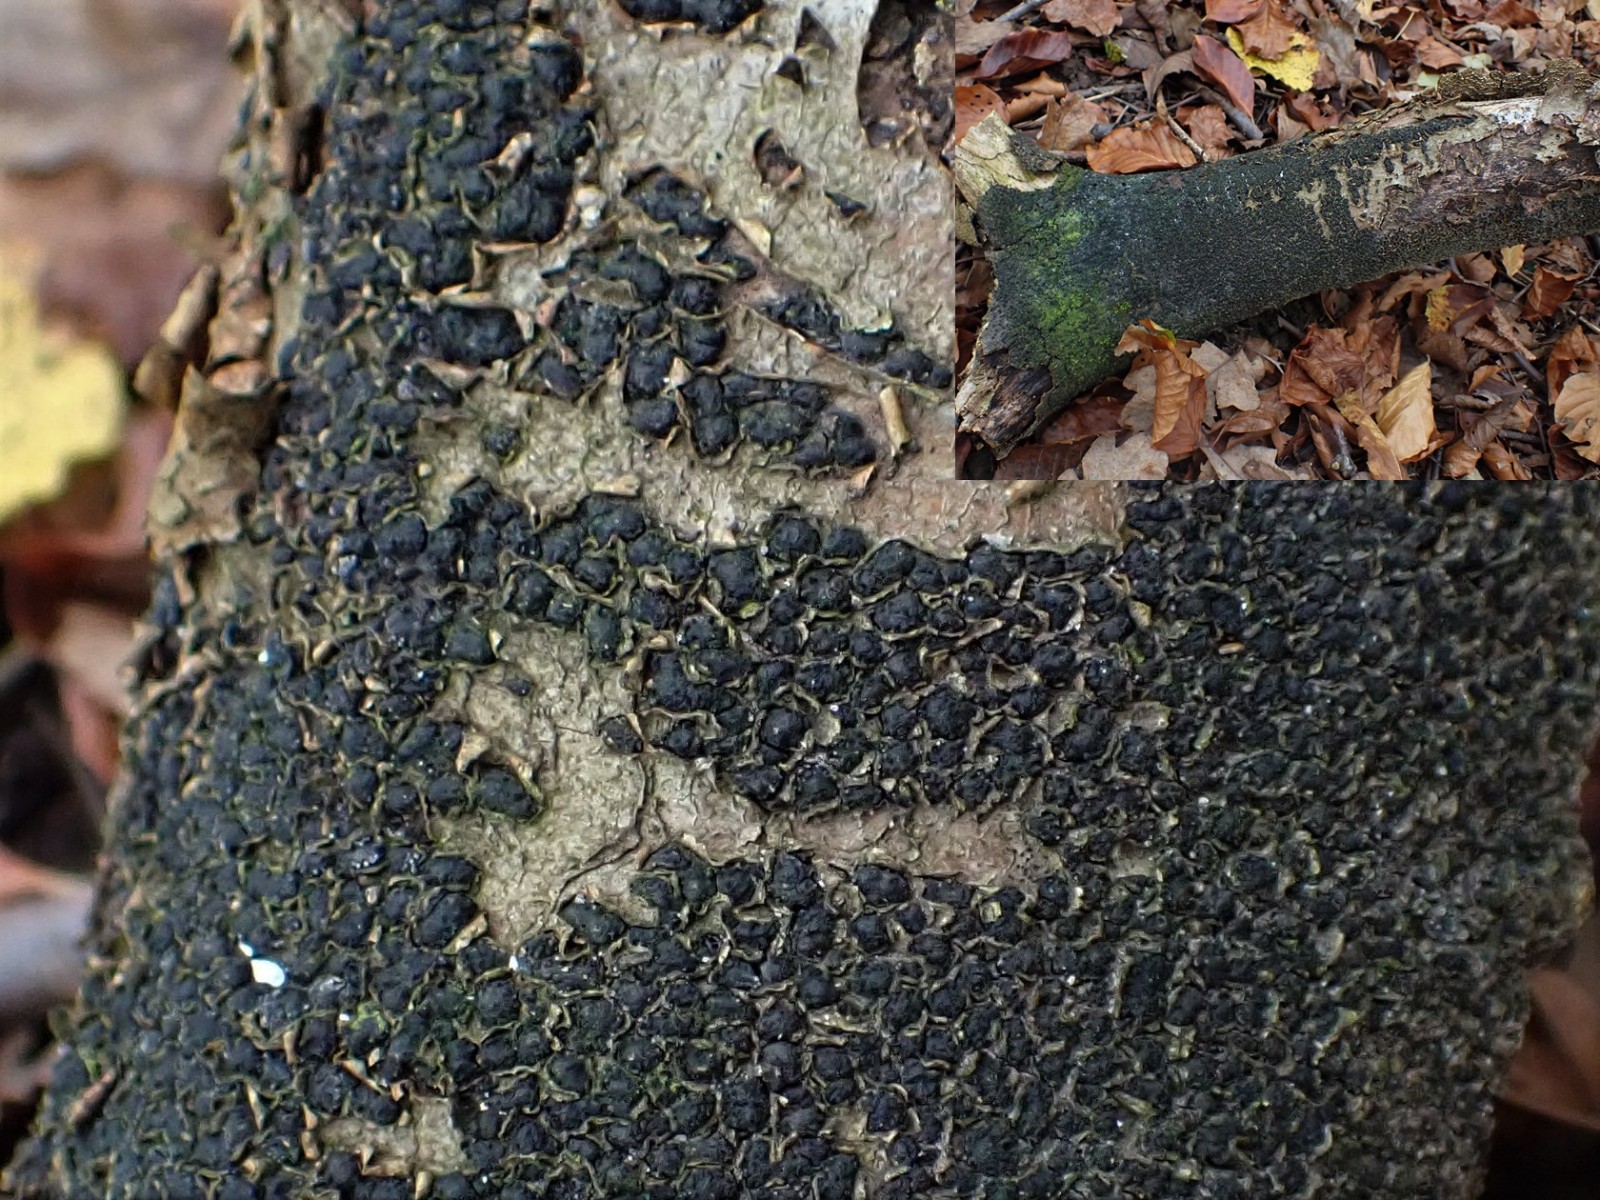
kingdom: Fungi
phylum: Ascomycota
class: Sordariomycetes
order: Xylariales
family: Melogrammataceae
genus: Melogramma
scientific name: Melogramma spiniferum
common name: bøgefod-kulhals
